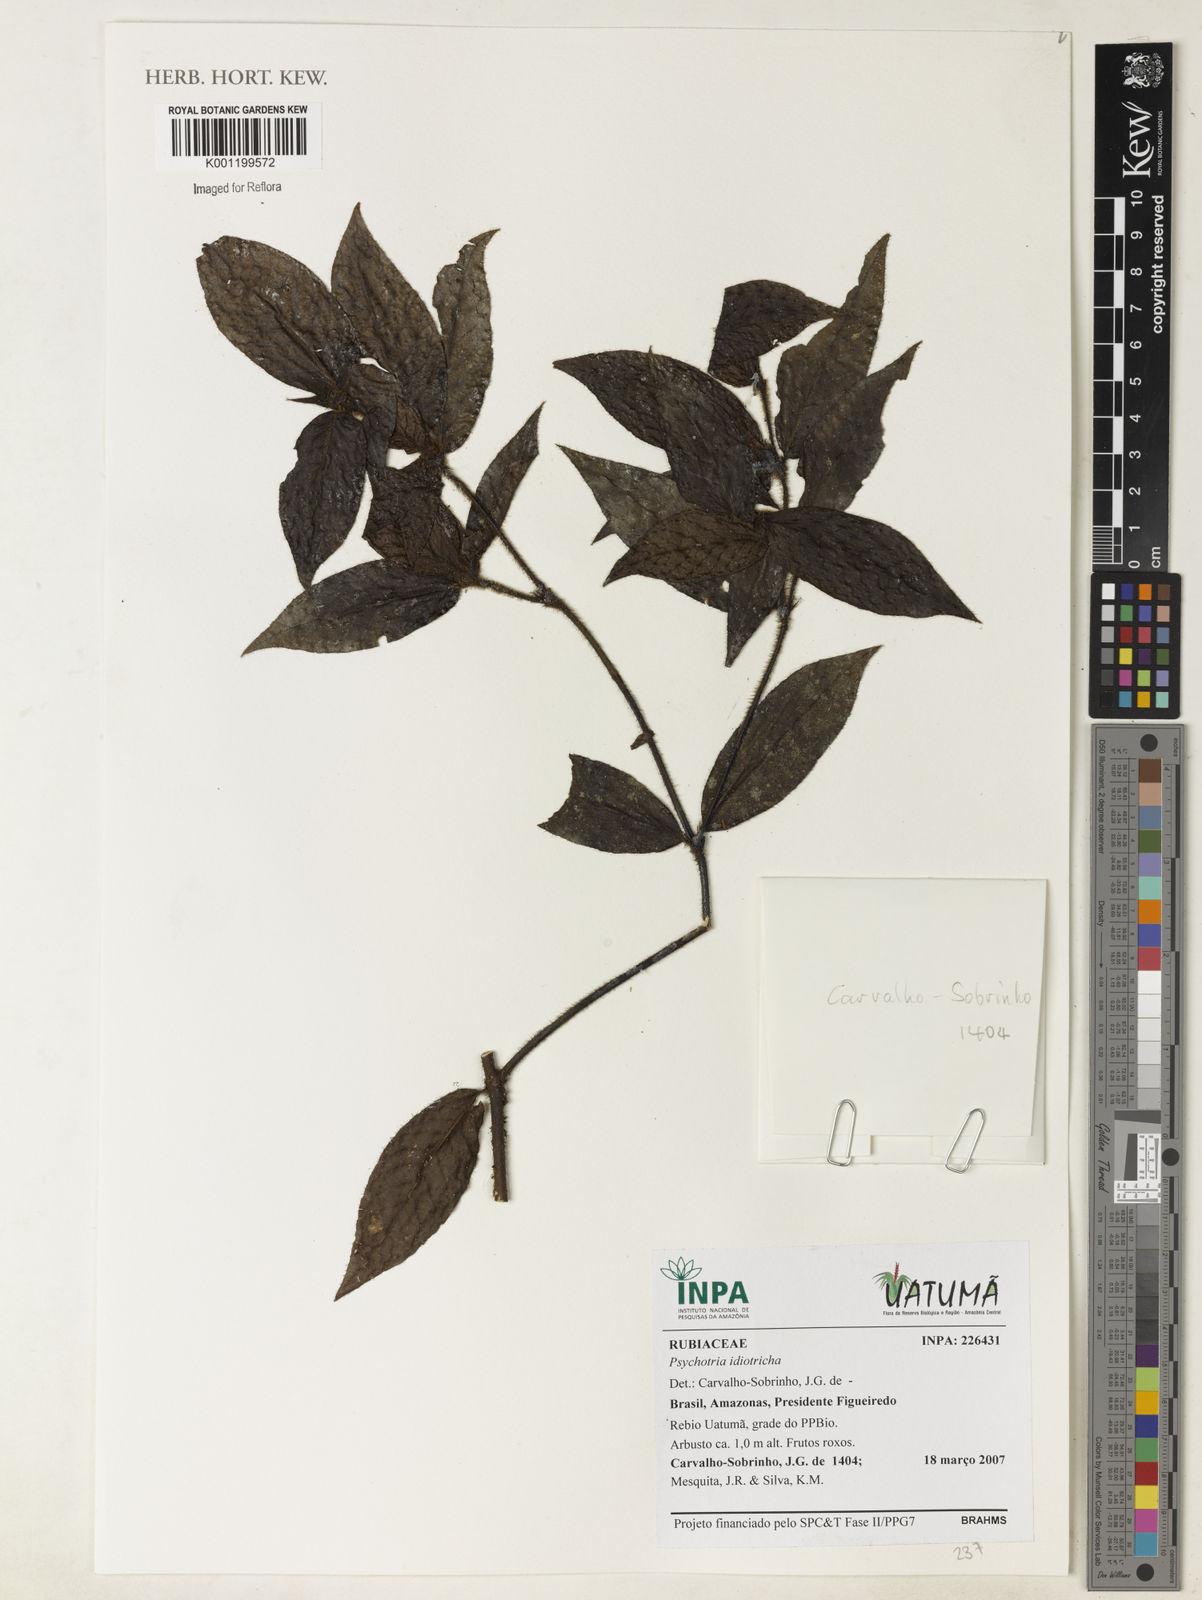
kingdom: Plantae
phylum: Tracheophyta
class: Magnoliopsida
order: Gentianales
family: Rubiaceae
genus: Psychotria
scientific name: Psychotria
